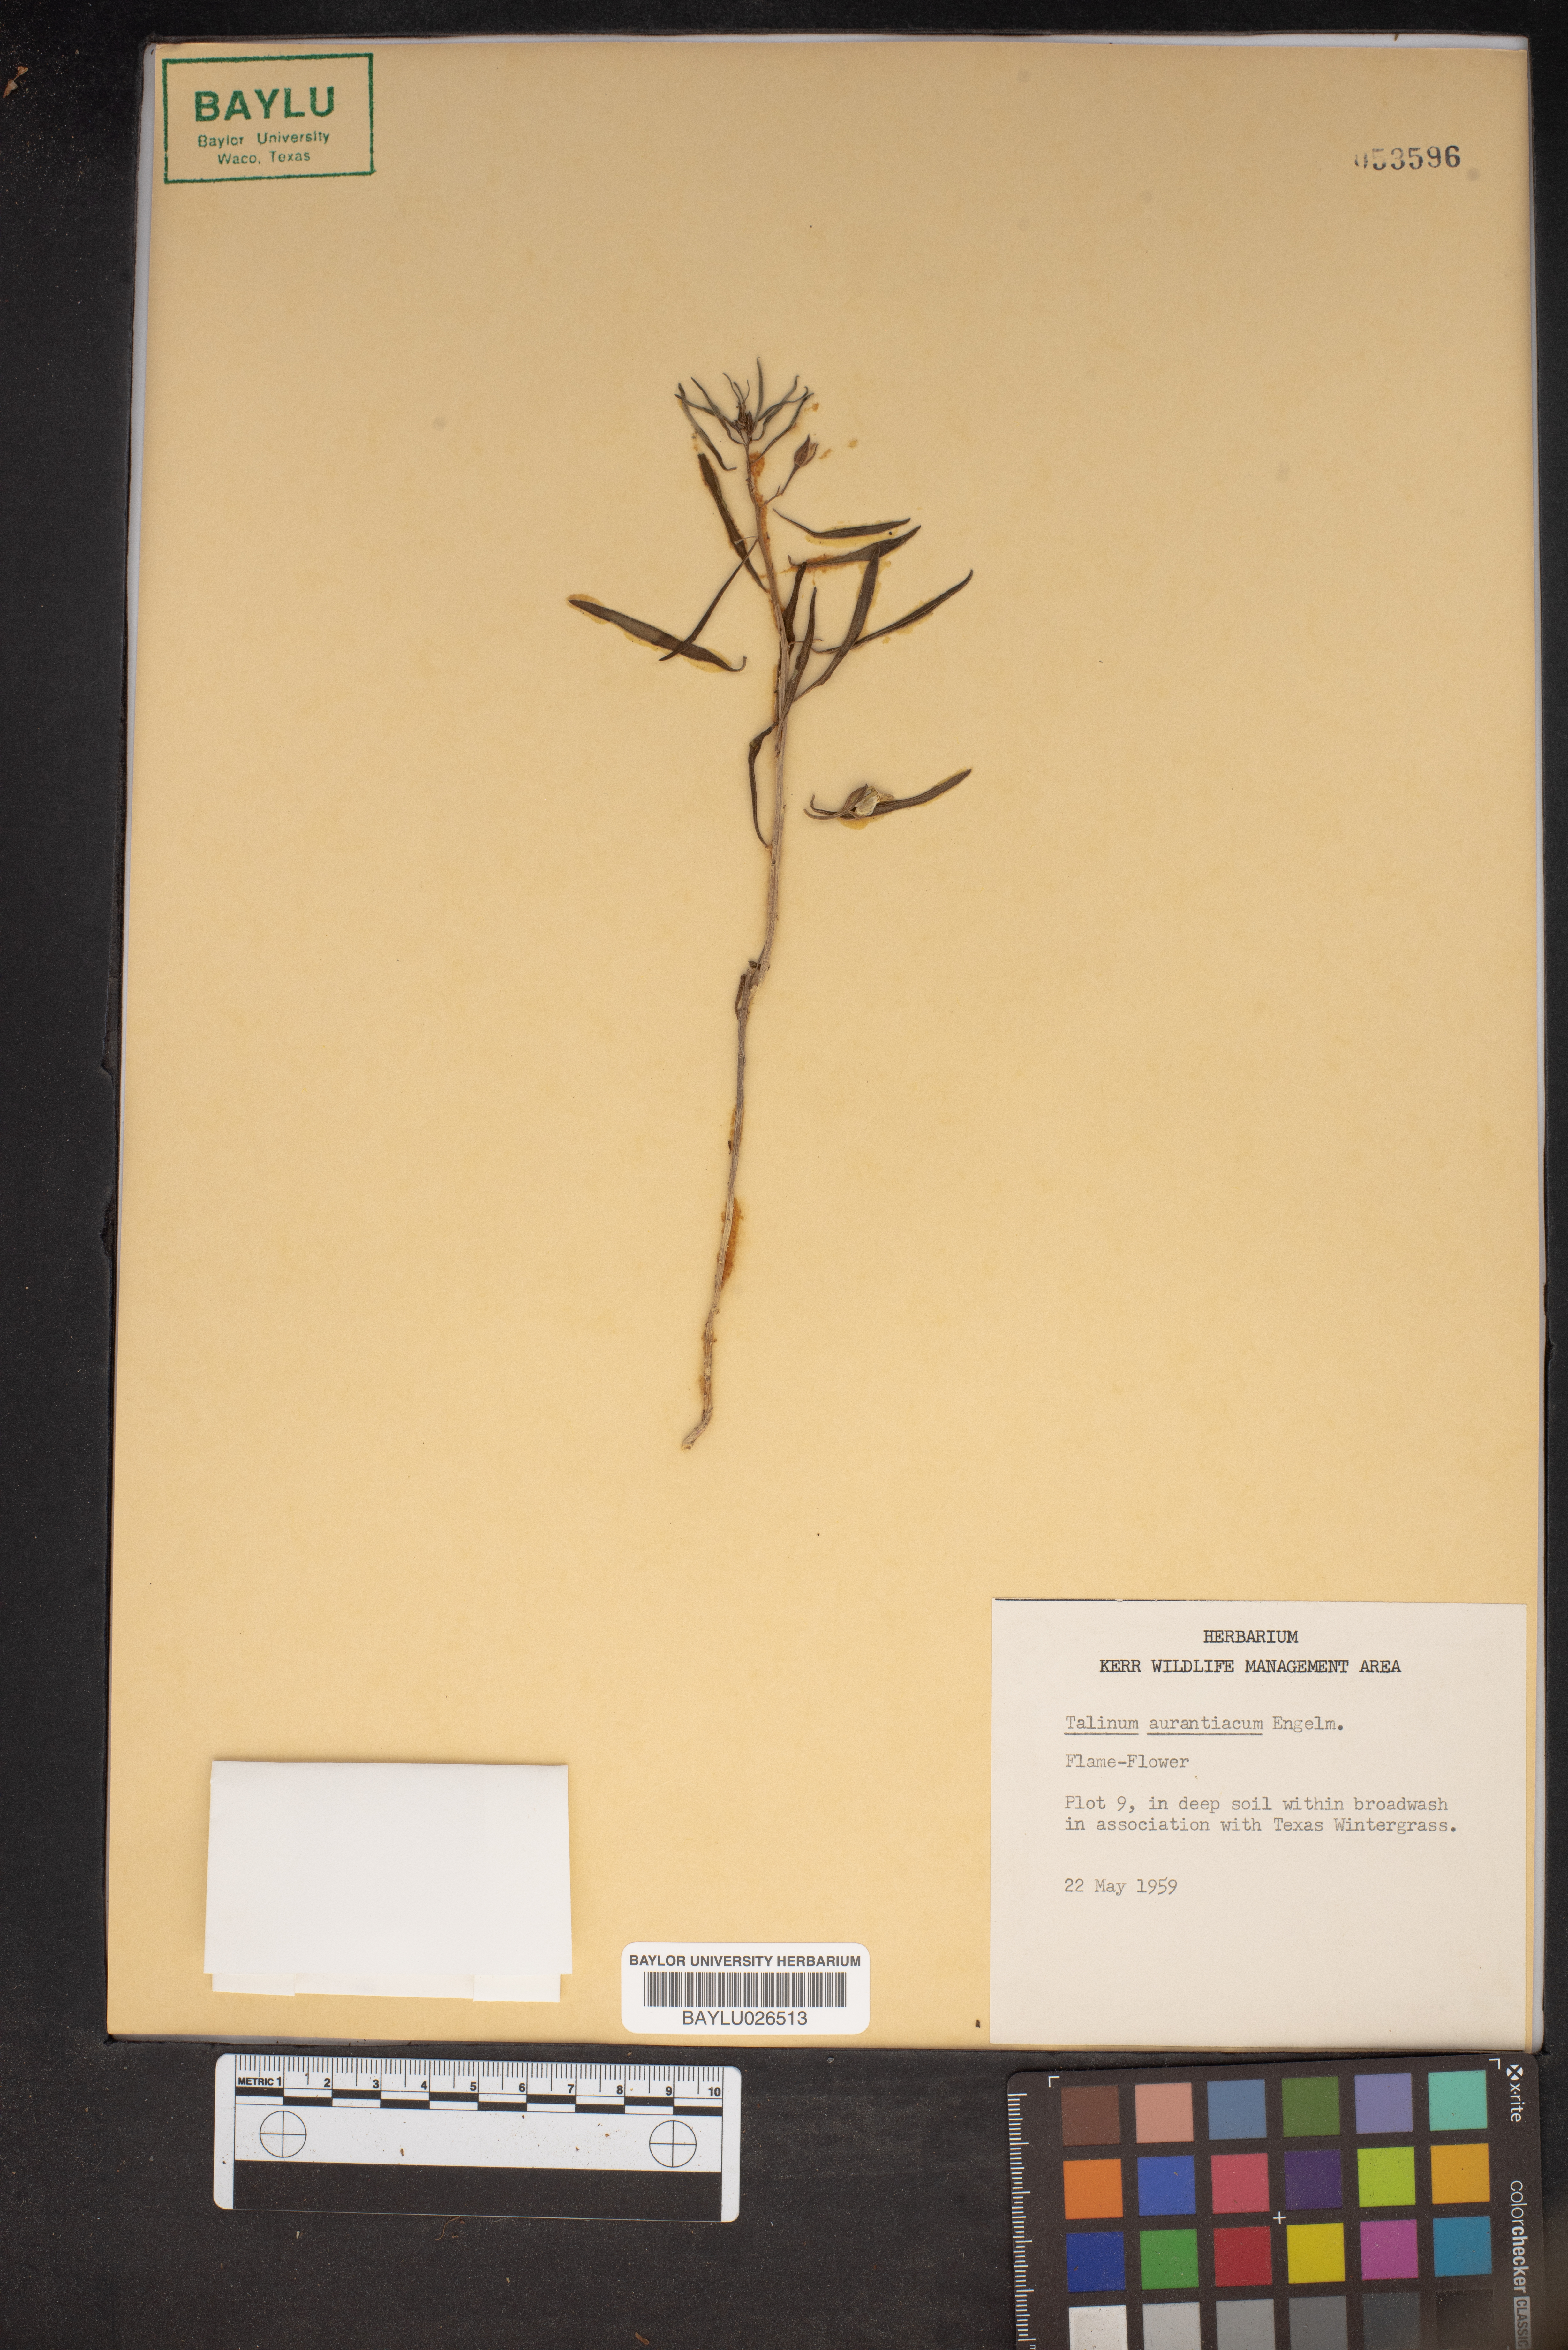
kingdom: Plantae
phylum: Tracheophyta
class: Magnoliopsida
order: Caryophyllales
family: Montiaceae
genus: Phemeranthus
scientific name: Phemeranthus aurantiacus
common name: Orange fameflower
